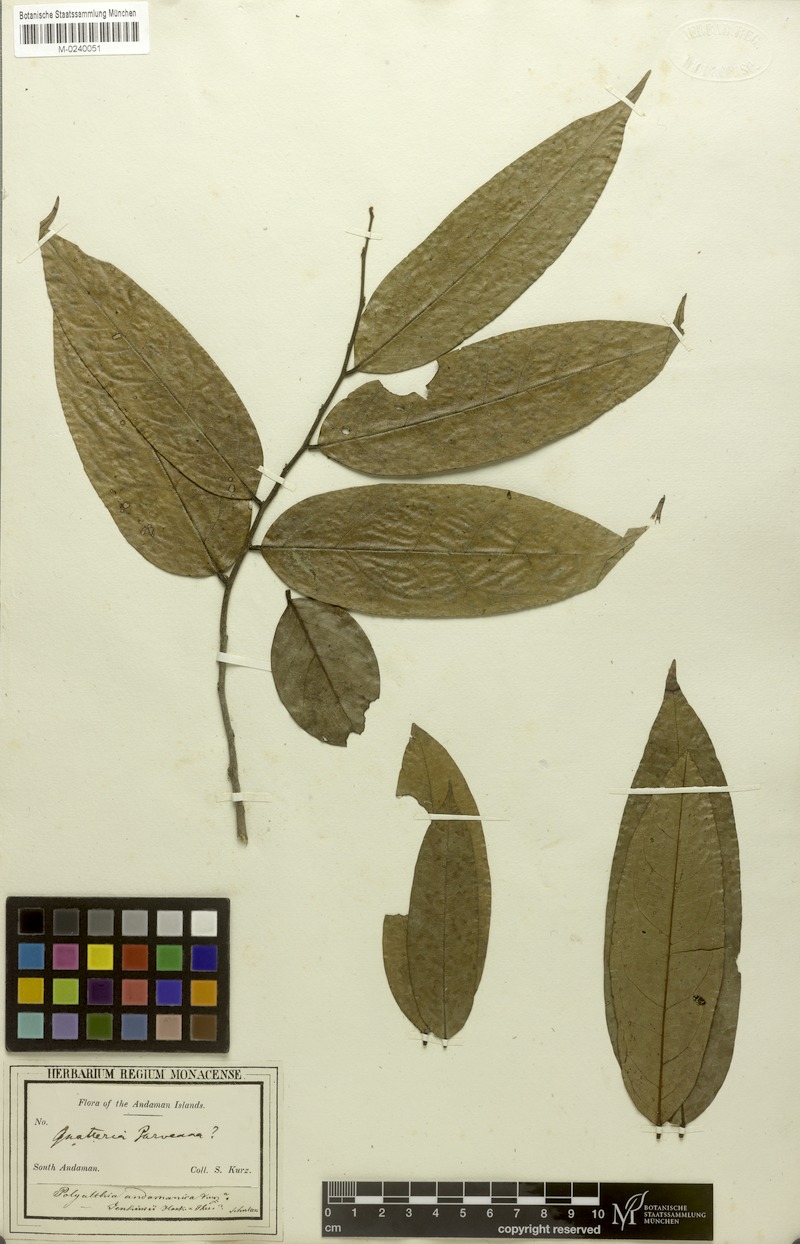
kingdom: Plantae
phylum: Tracheophyta
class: Magnoliopsida
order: Magnoliales
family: Annonaceae
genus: Hubera
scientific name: Hubera jenkinsii
